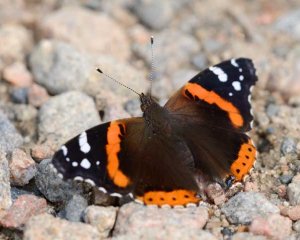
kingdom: Animalia
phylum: Arthropoda
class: Insecta
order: Lepidoptera
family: Nymphalidae
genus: Vanessa
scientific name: Vanessa atalanta
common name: Red Admiral
